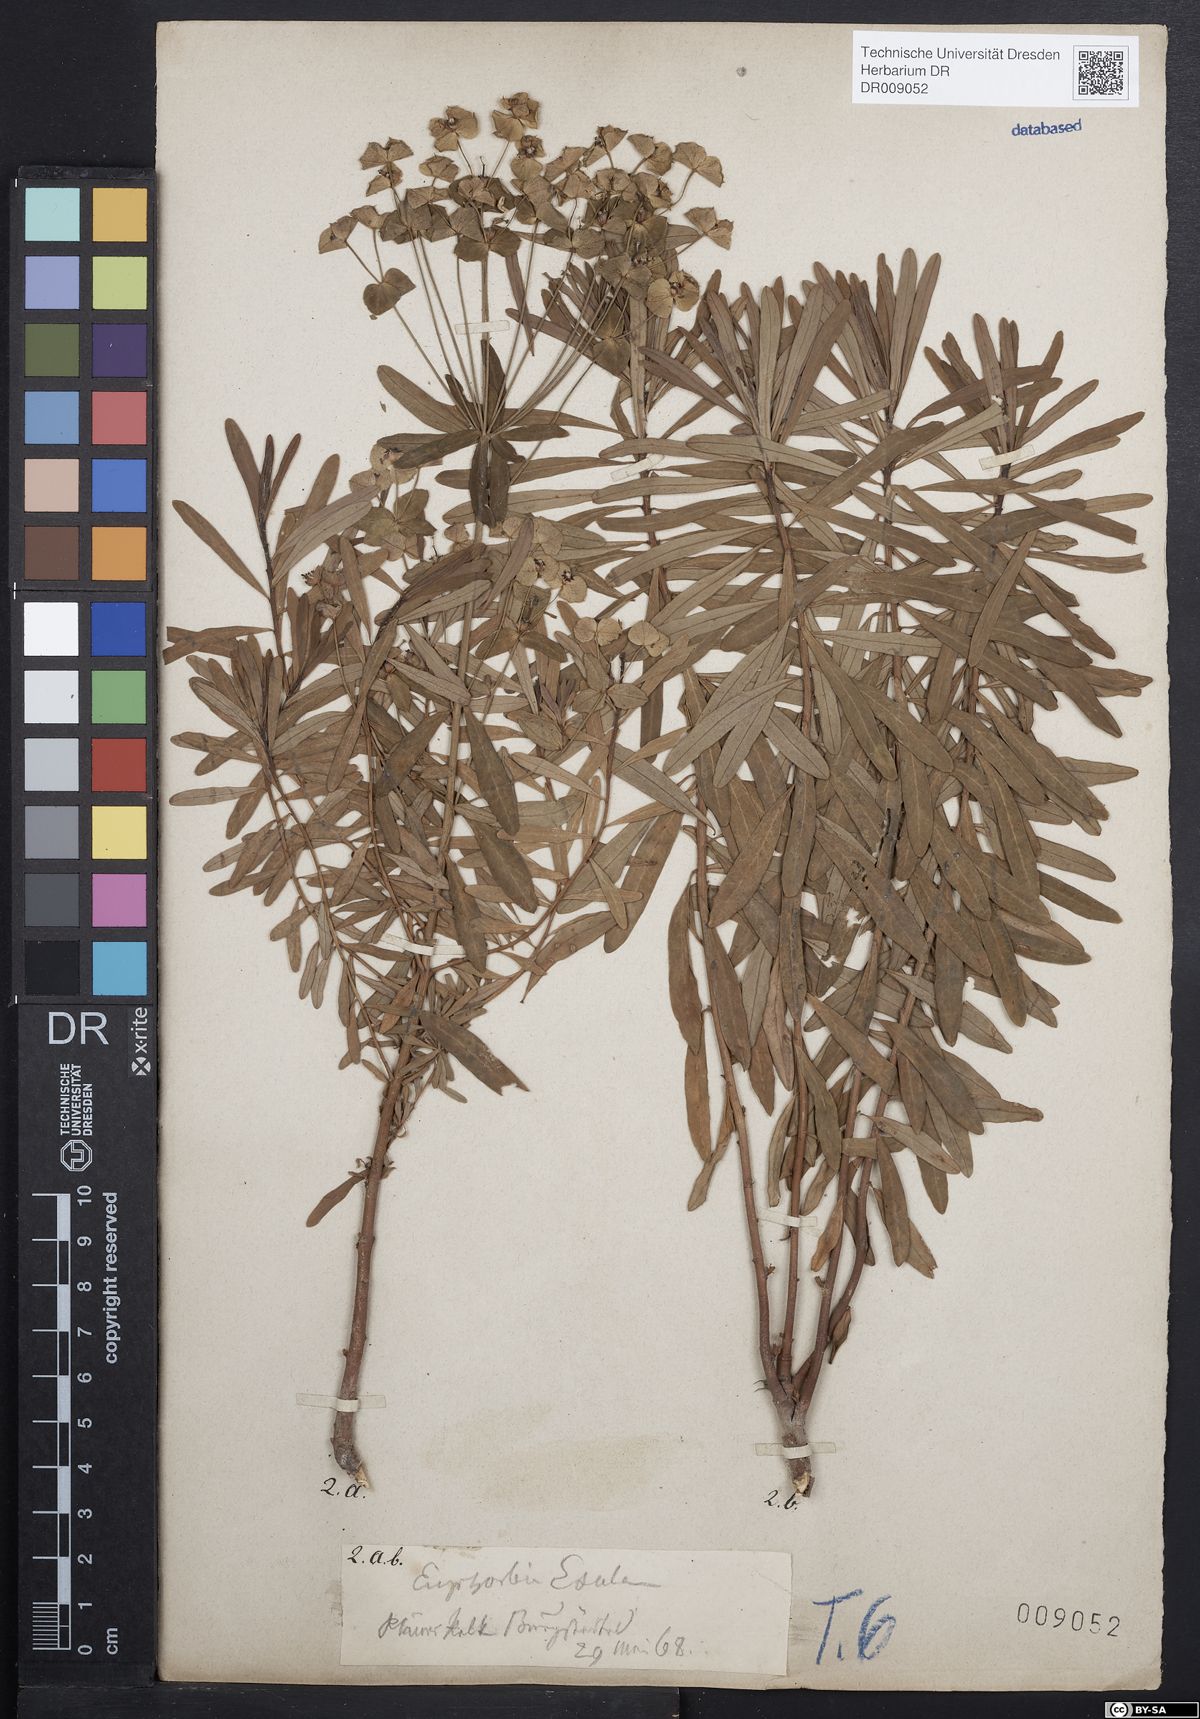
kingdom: Plantae
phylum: Tracheophyta
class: Magnoliopsida
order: Malpighiales
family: Euphorbiaceae
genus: Euphorbia
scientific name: Euphorbia esula
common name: Leafy spurge
